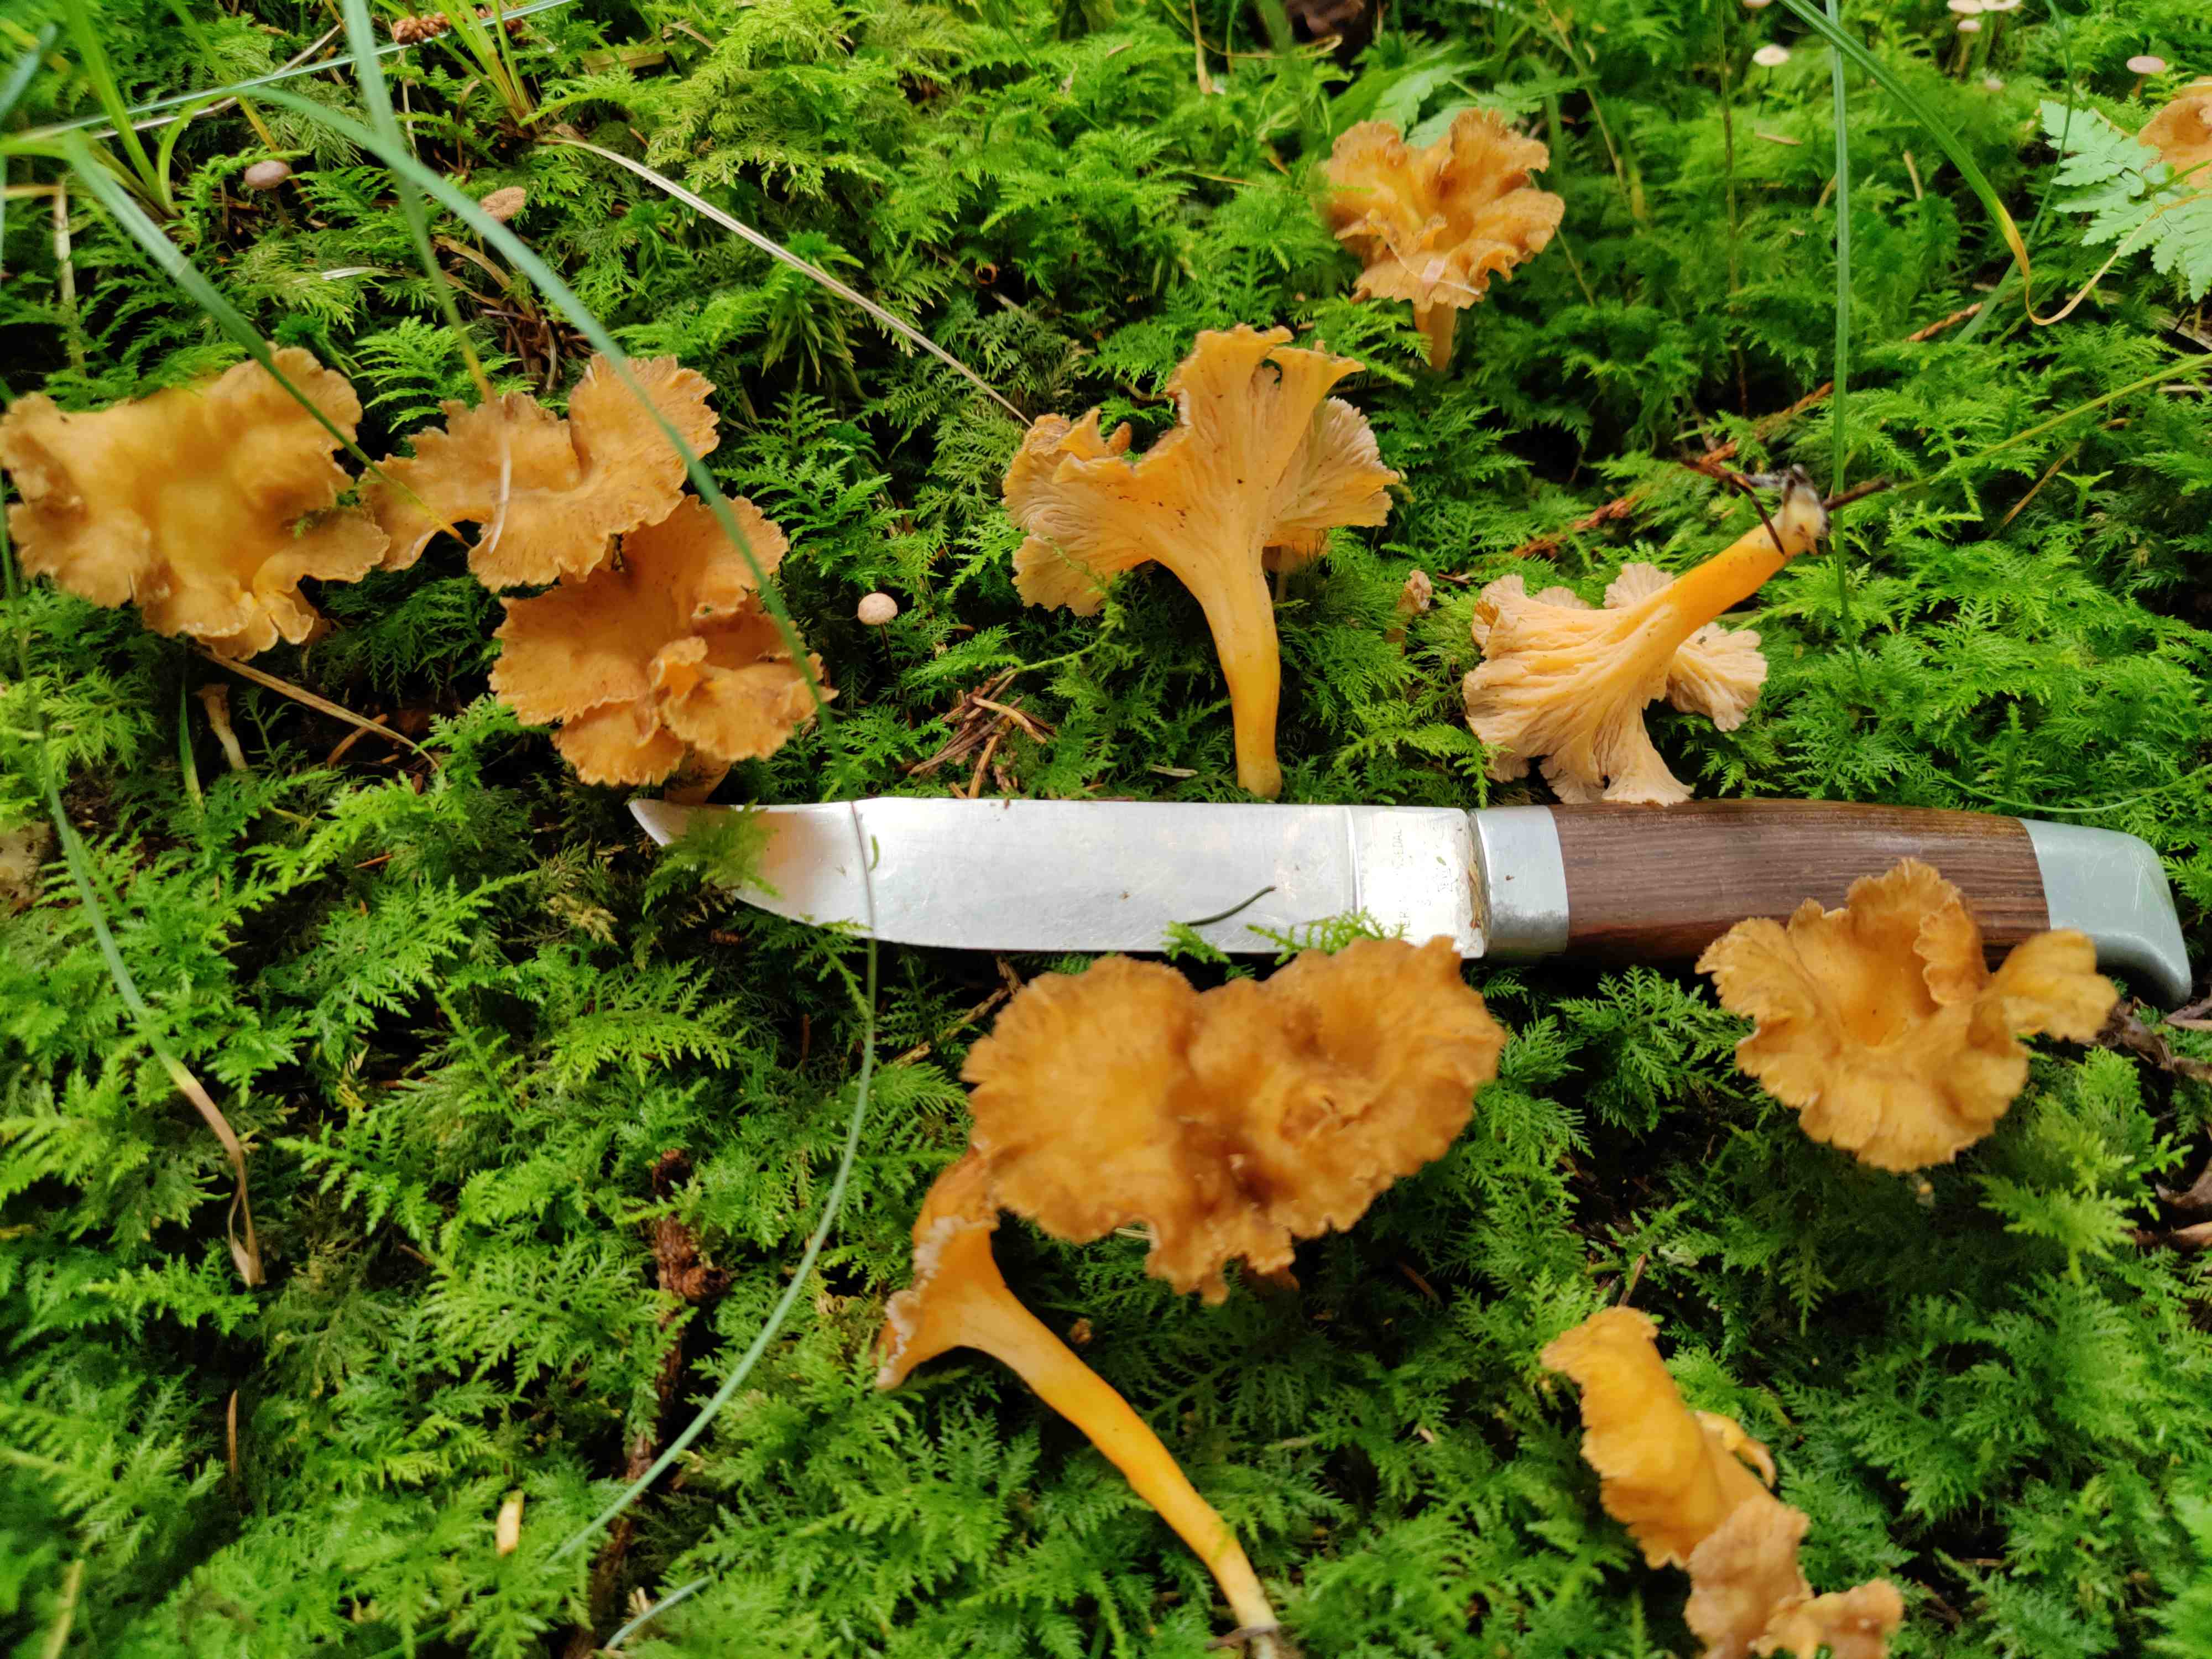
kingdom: Fungi
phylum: Basidiomycota
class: Agaricomycetes
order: Cantharellales
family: Hydnaceae
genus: Craterellus
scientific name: Craterellus lutescens
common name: gylden kantarel
